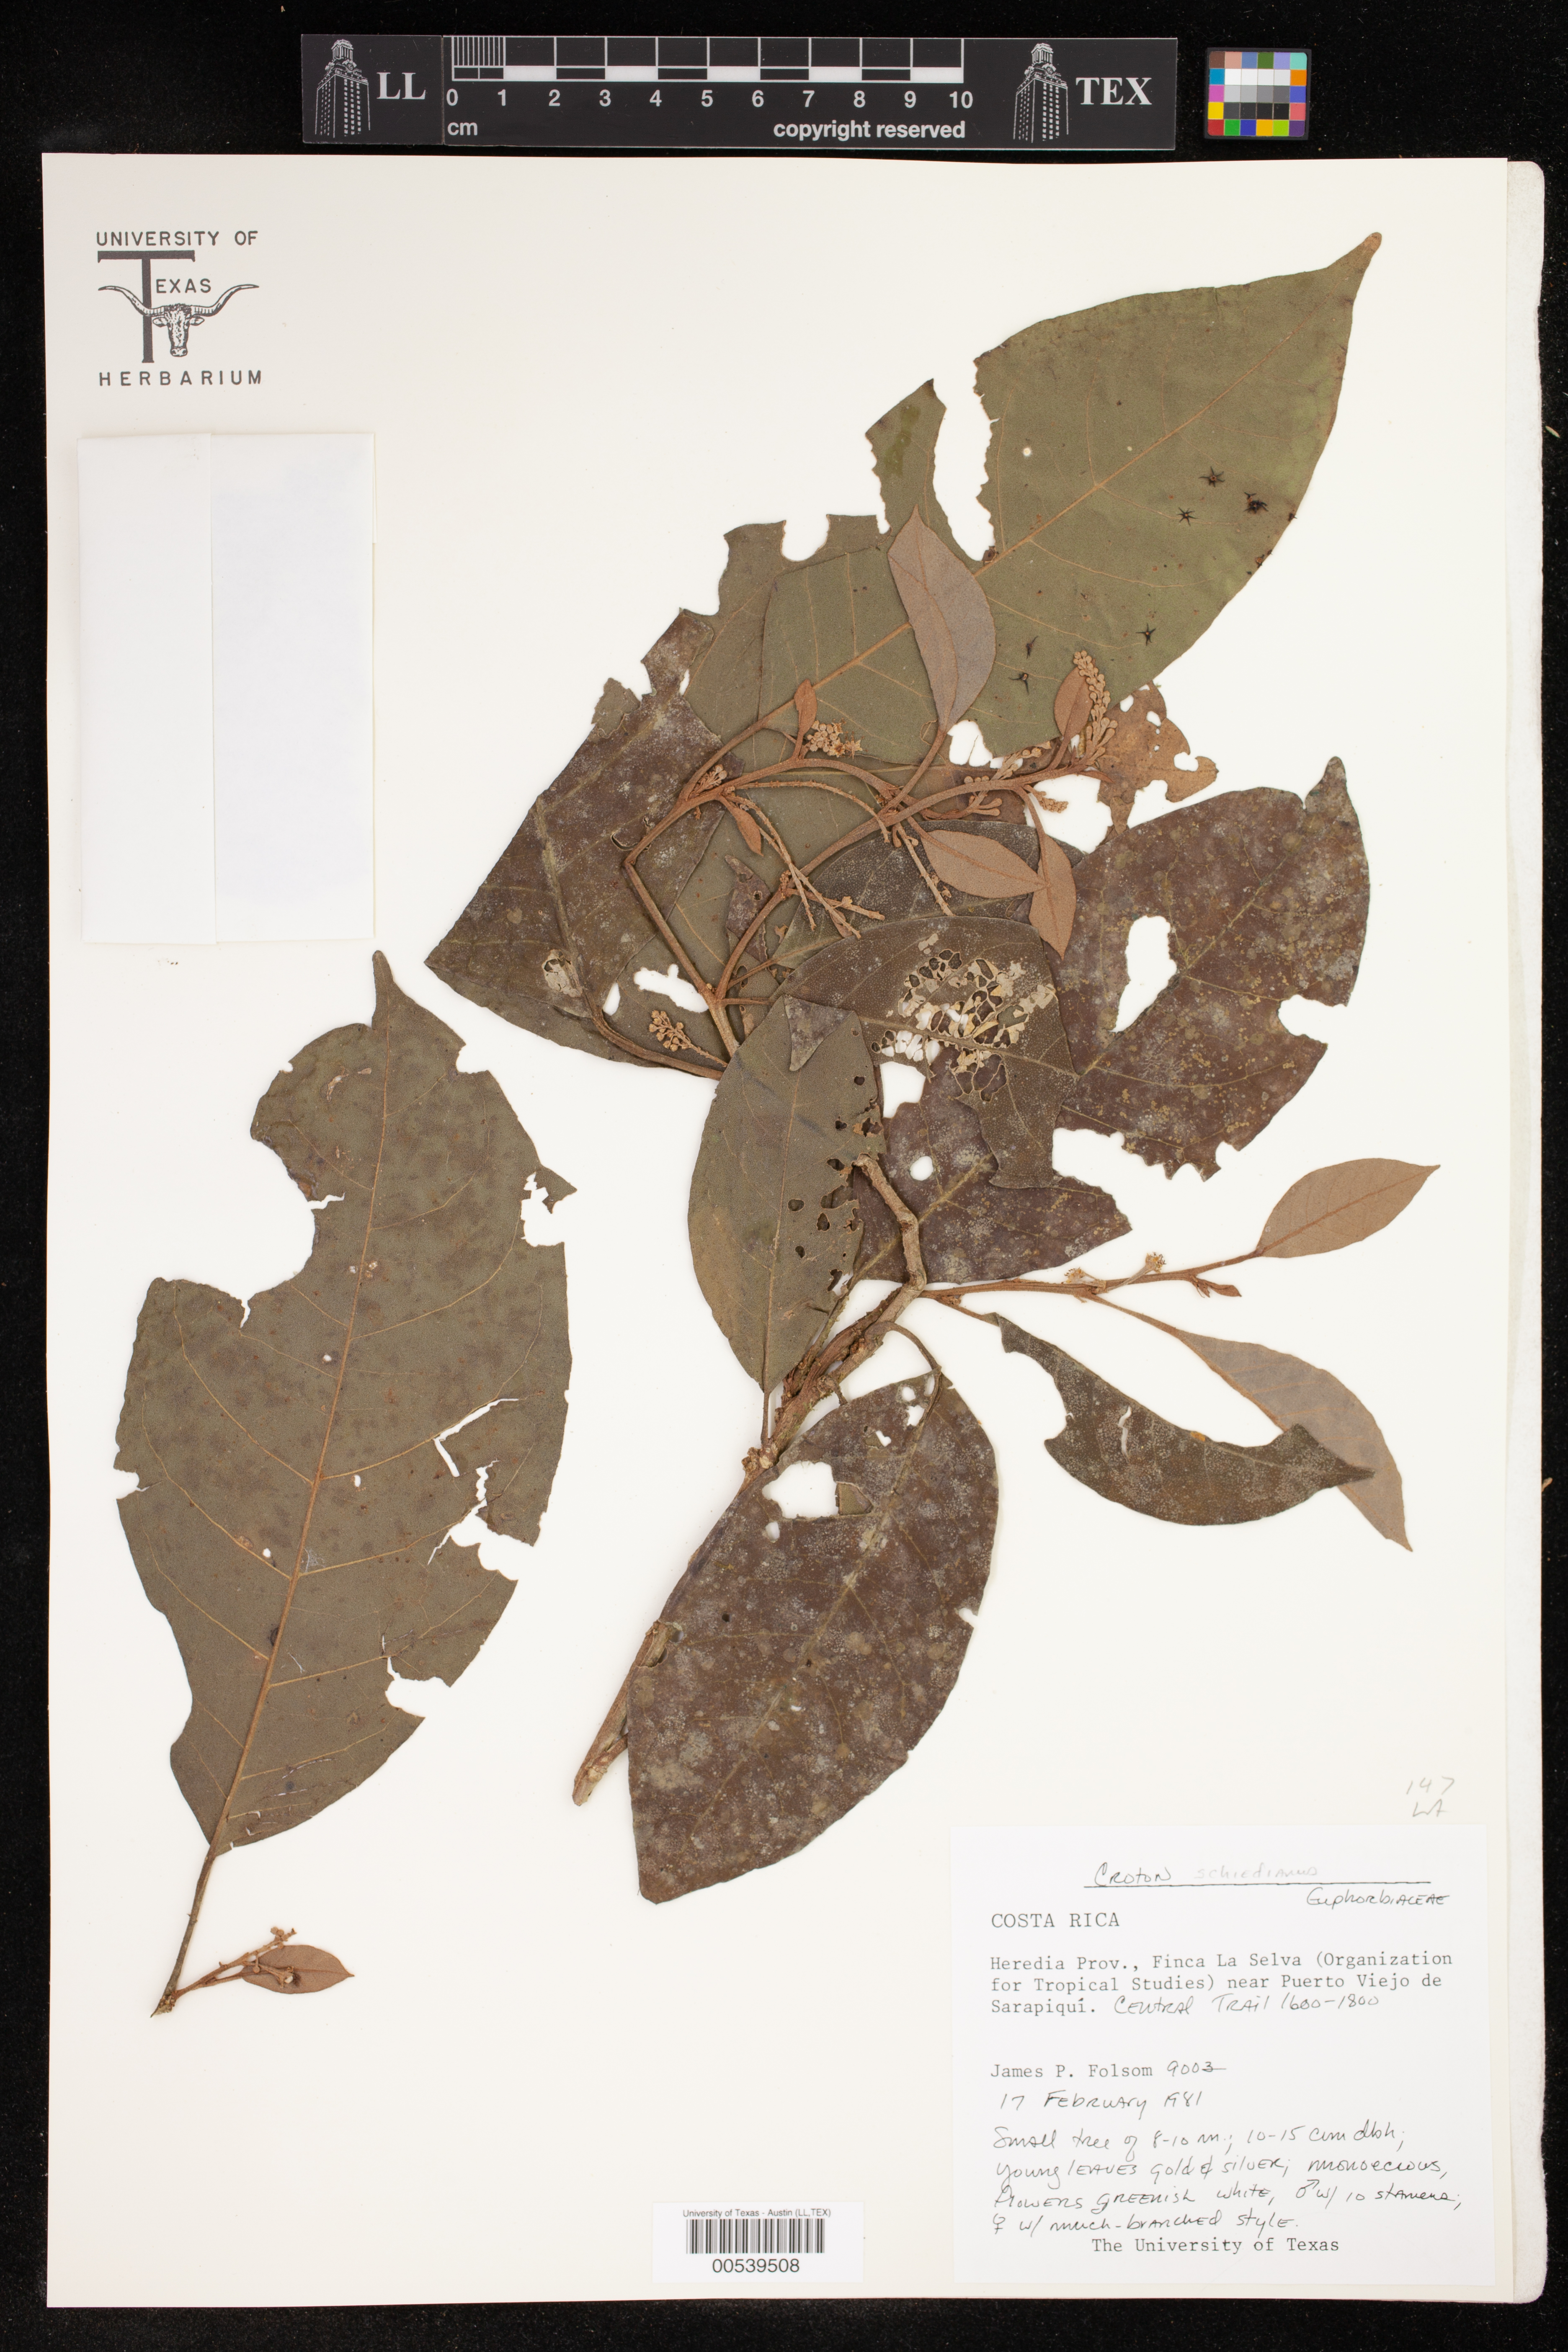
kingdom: Plantae
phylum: Tracheophyta
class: Magnoliopsida
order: Malpighiales
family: Euphorbiaceae
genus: Croton
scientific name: Croton schiedeanus
